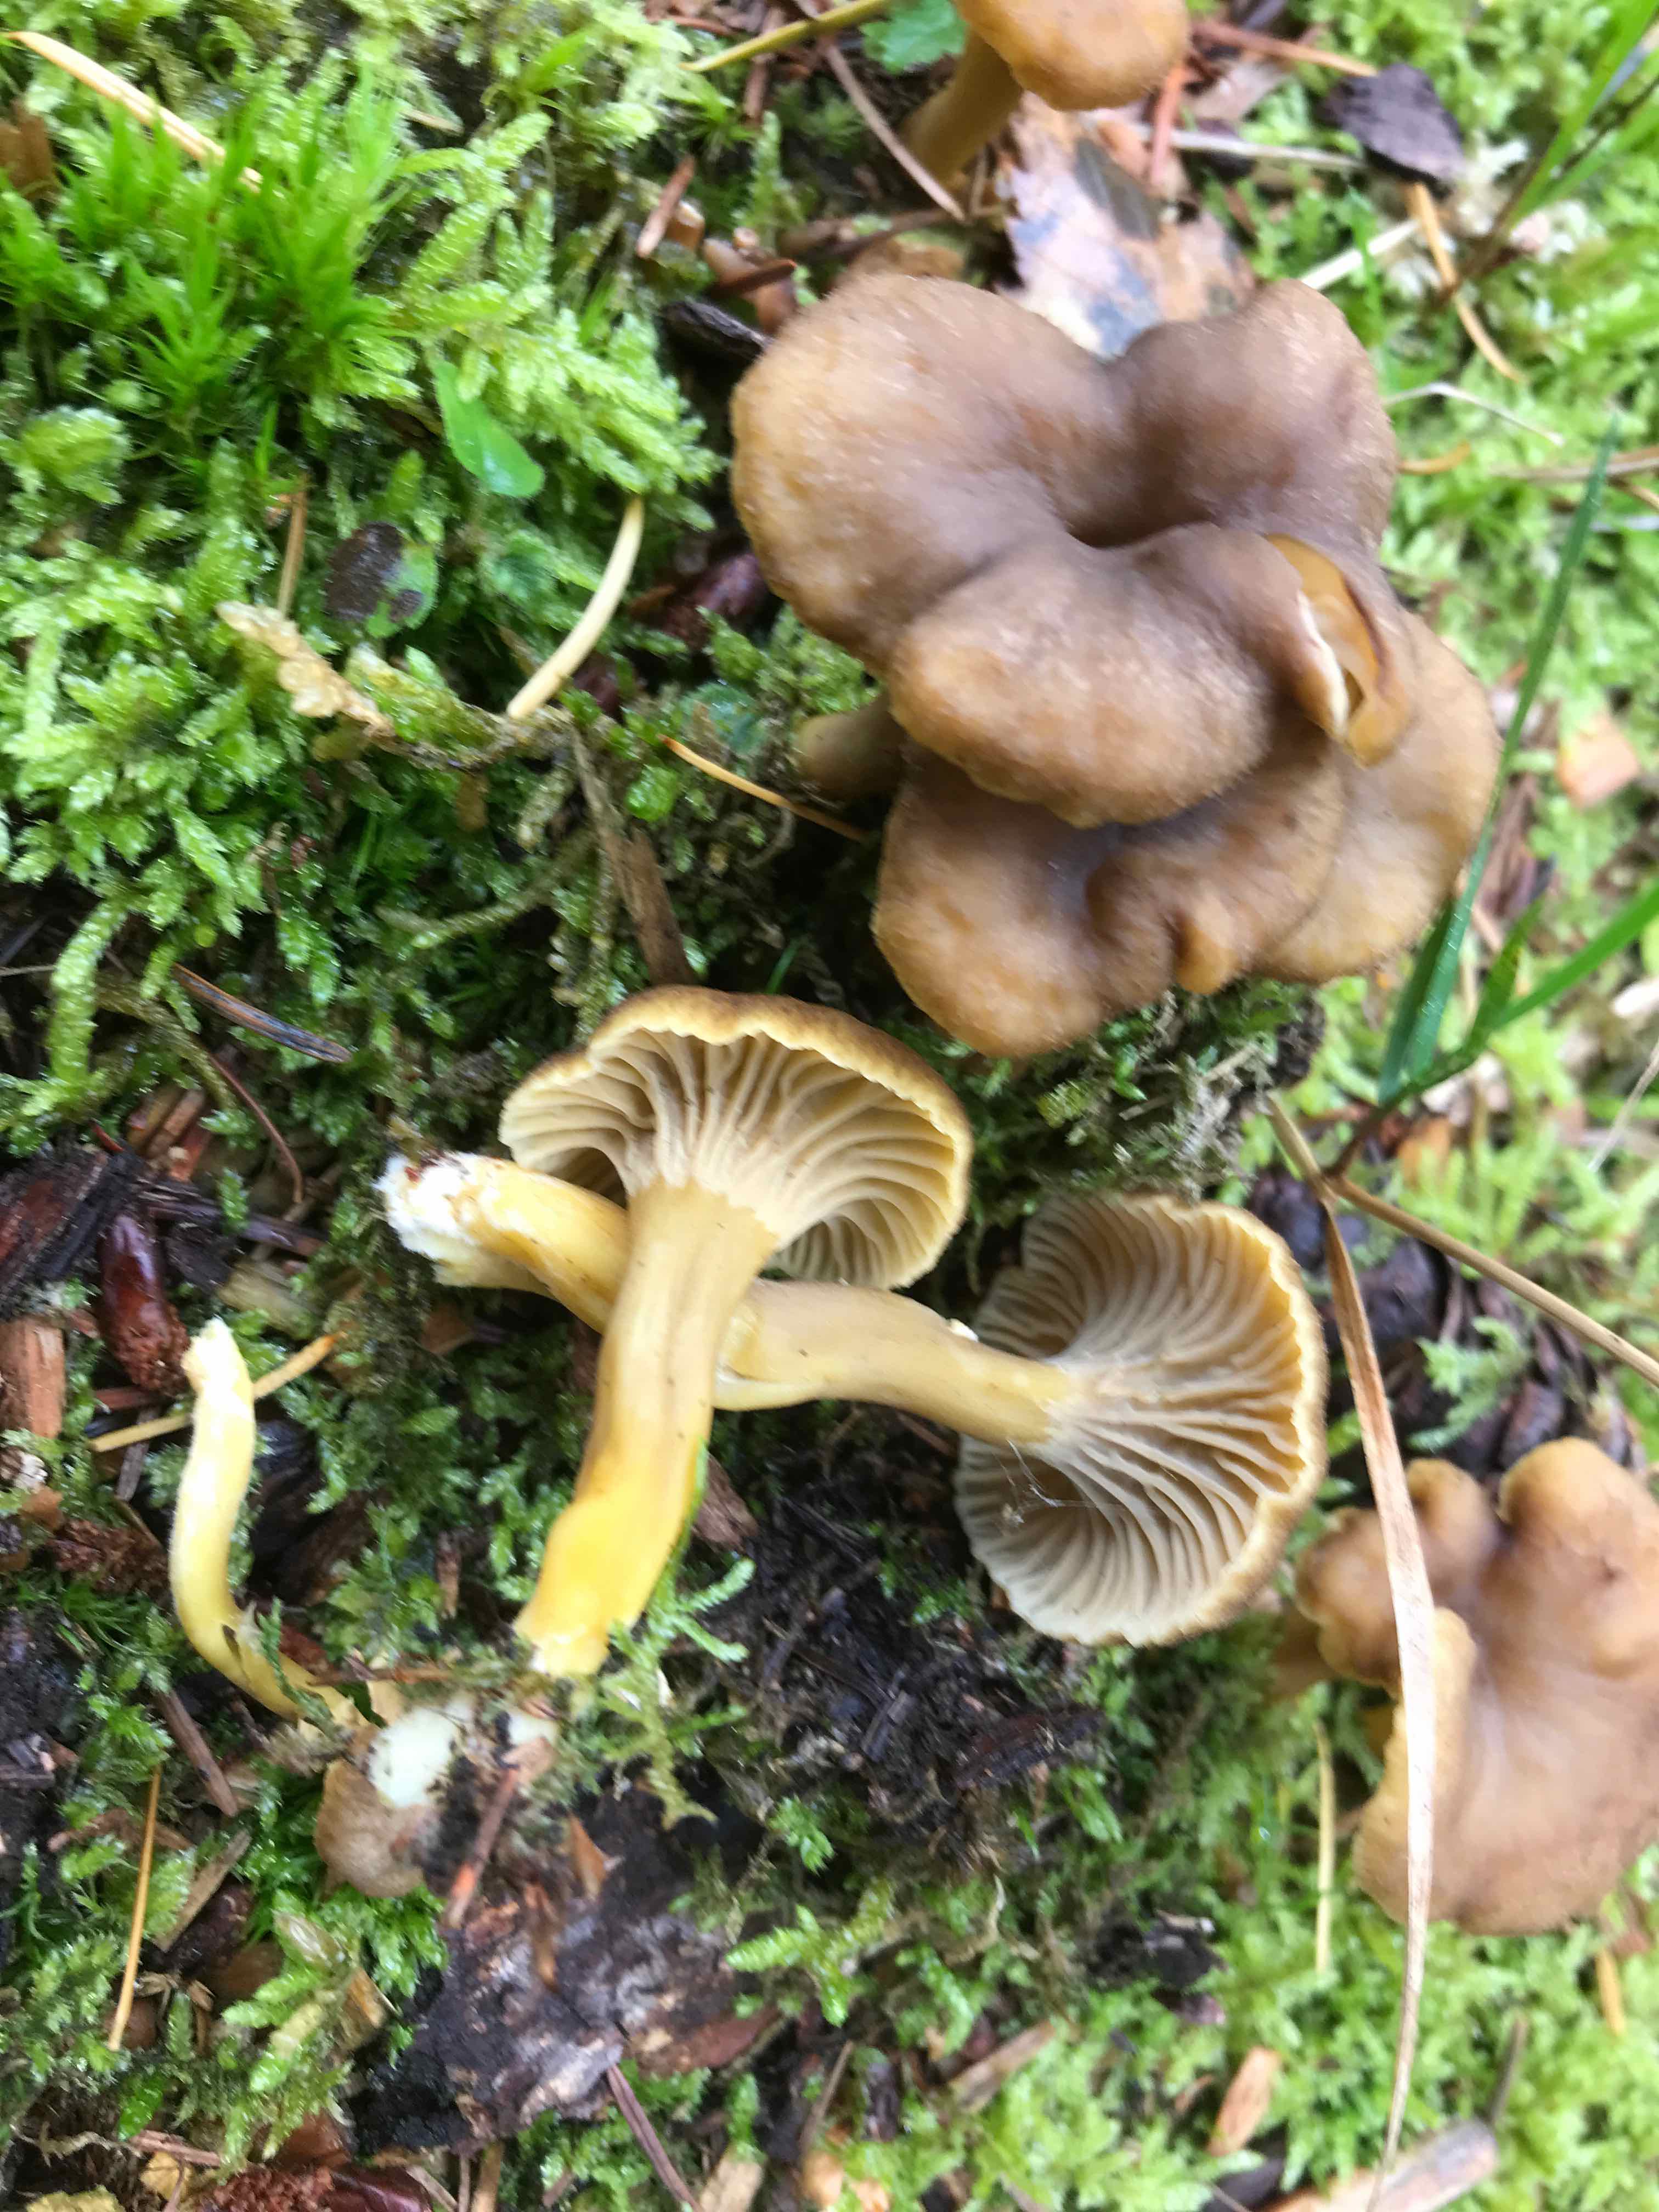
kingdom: Fungi
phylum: Basidiomycota
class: Agaricomycetes
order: Cantharellales
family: Hydnaceae
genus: Craterellus
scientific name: Craterellus tubaeformis
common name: tragt-kantarel
